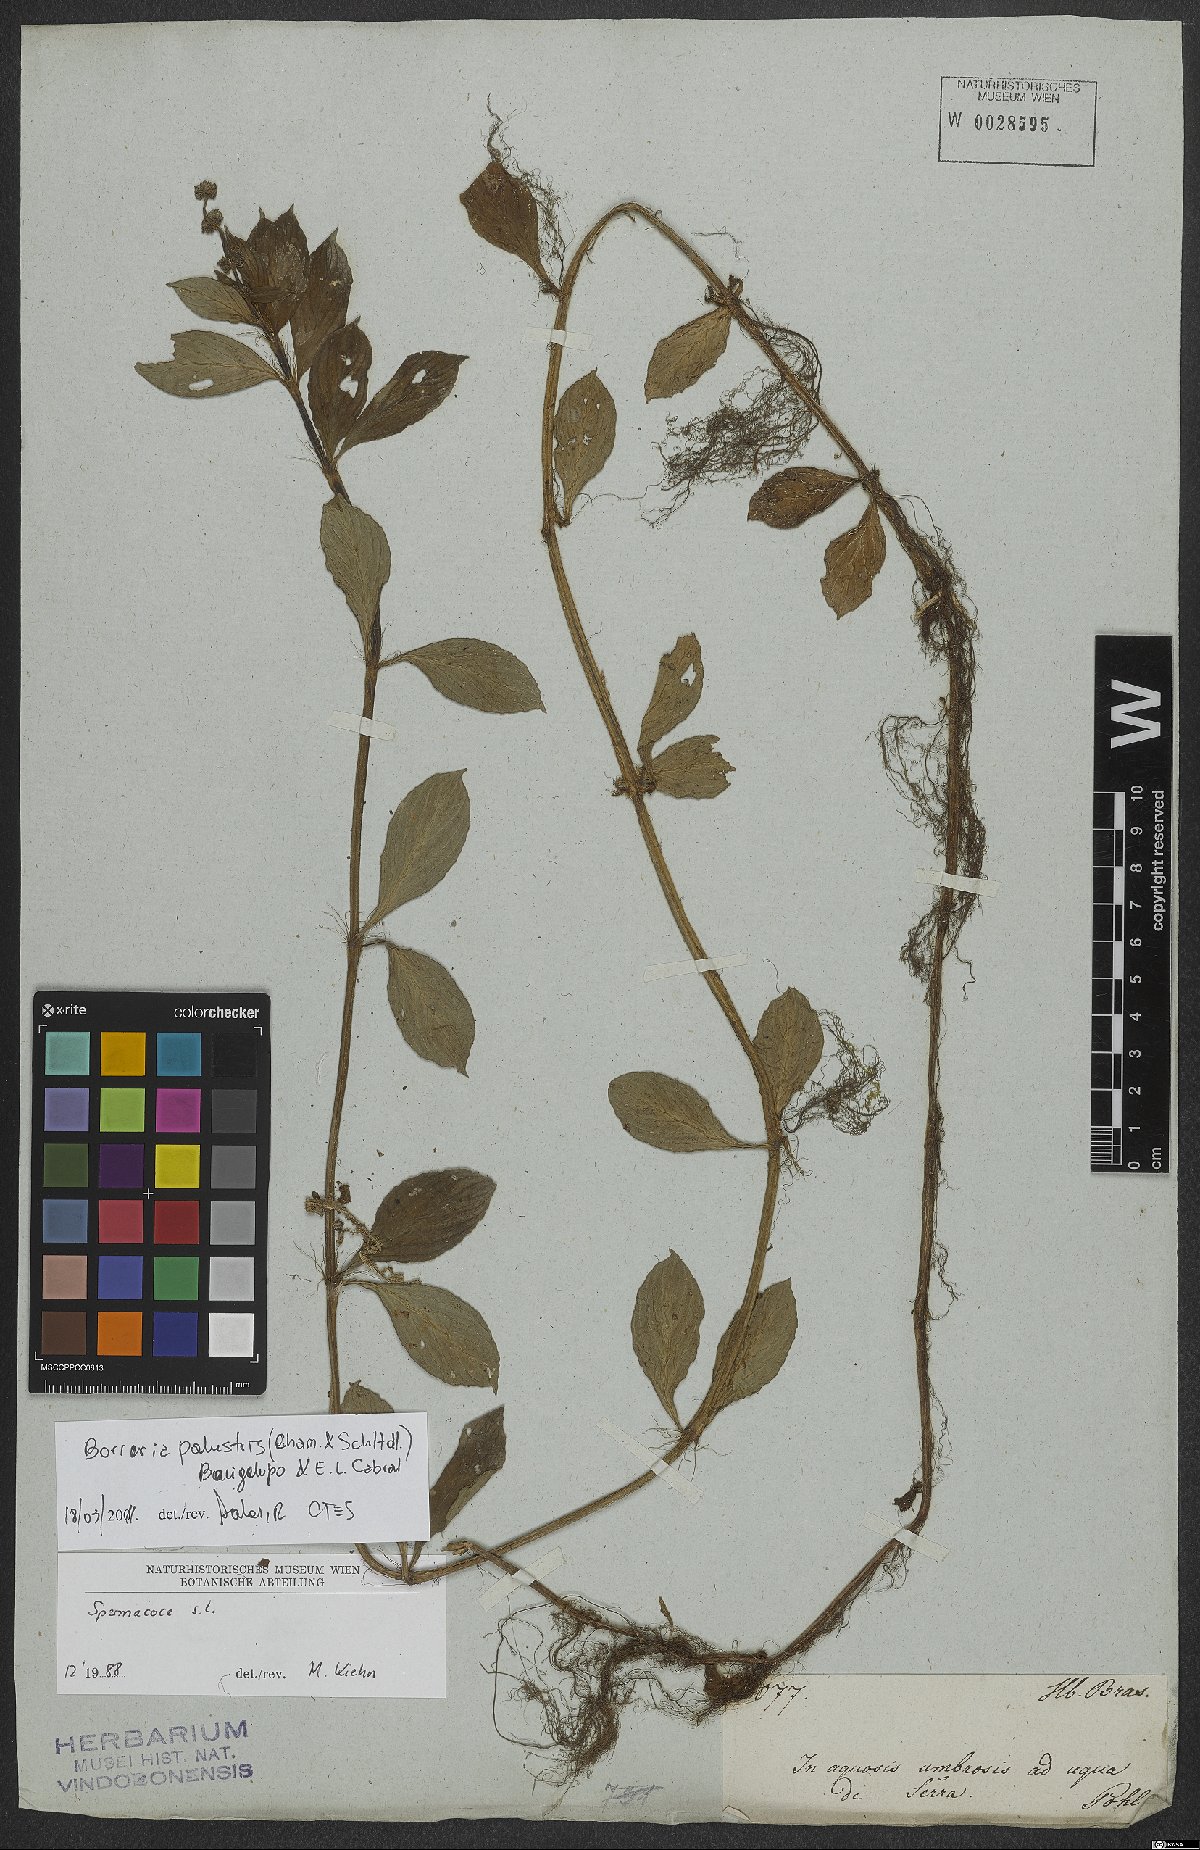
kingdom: Plantae
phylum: Tracheophyta
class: Magnoliopsida
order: Gentianales
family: Rubiaceae
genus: Galianthe
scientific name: Galianthe palustris
